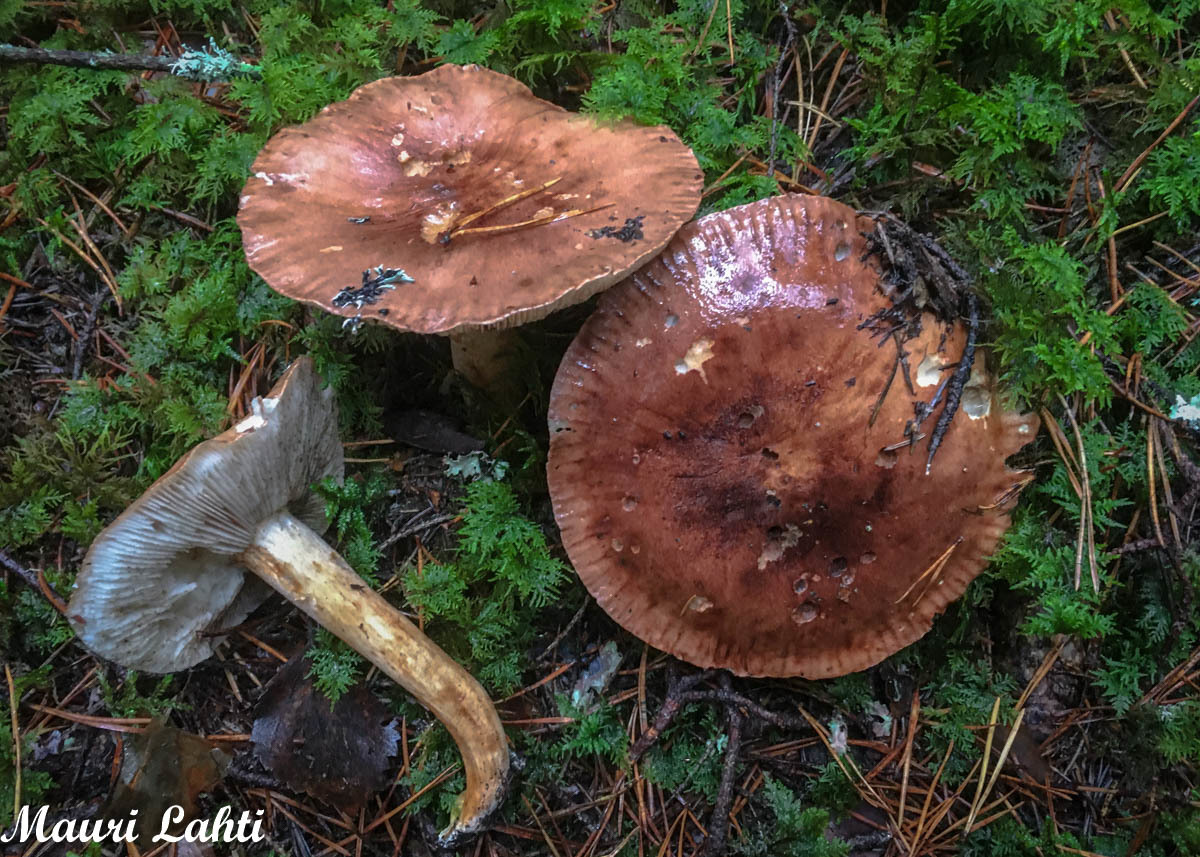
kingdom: Fungi
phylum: Basidiomycota
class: Agaricomycetes
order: Agaricales
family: Tricholomataceae
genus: Tricholoma
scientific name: Tricholoma stans
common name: Upright knight
